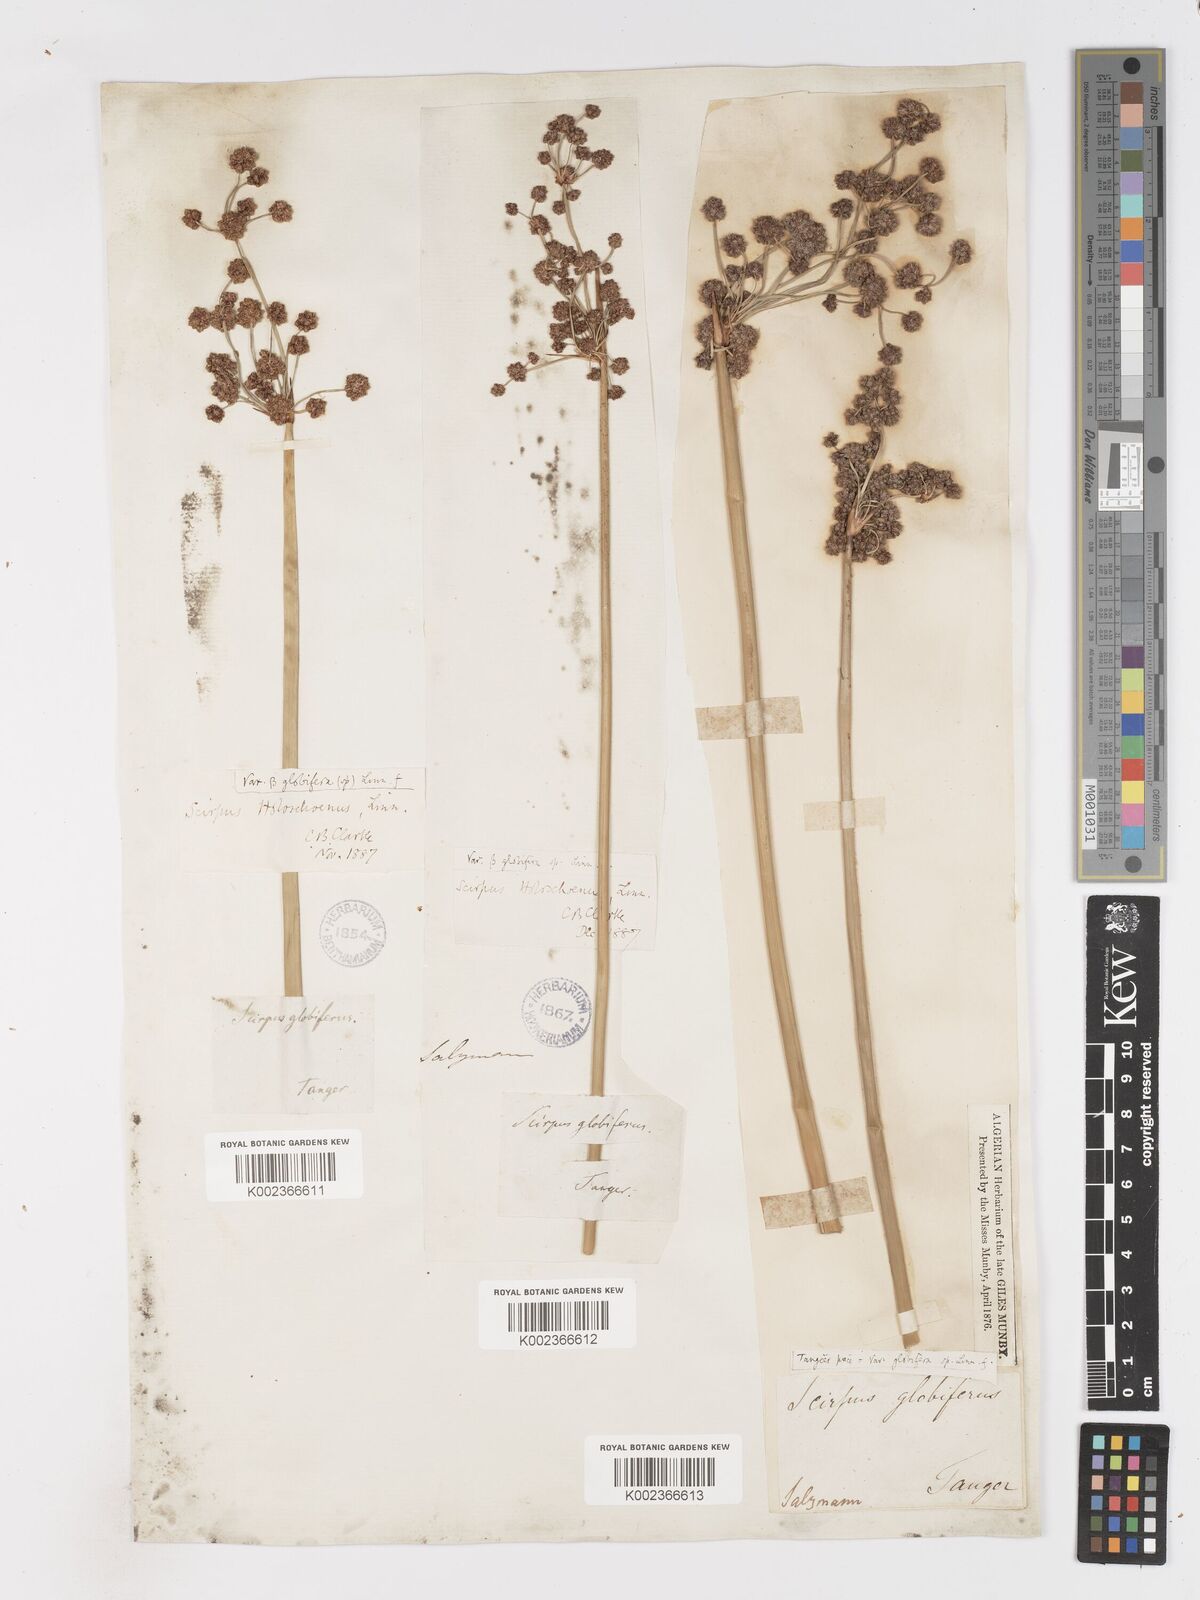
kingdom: Plantae
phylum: Tracheophyta
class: Liliopsida
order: Poales
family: Cyperaceae
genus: Scirpoides
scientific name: Scirpoides holoschoenus
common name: Round-headed club-rush
